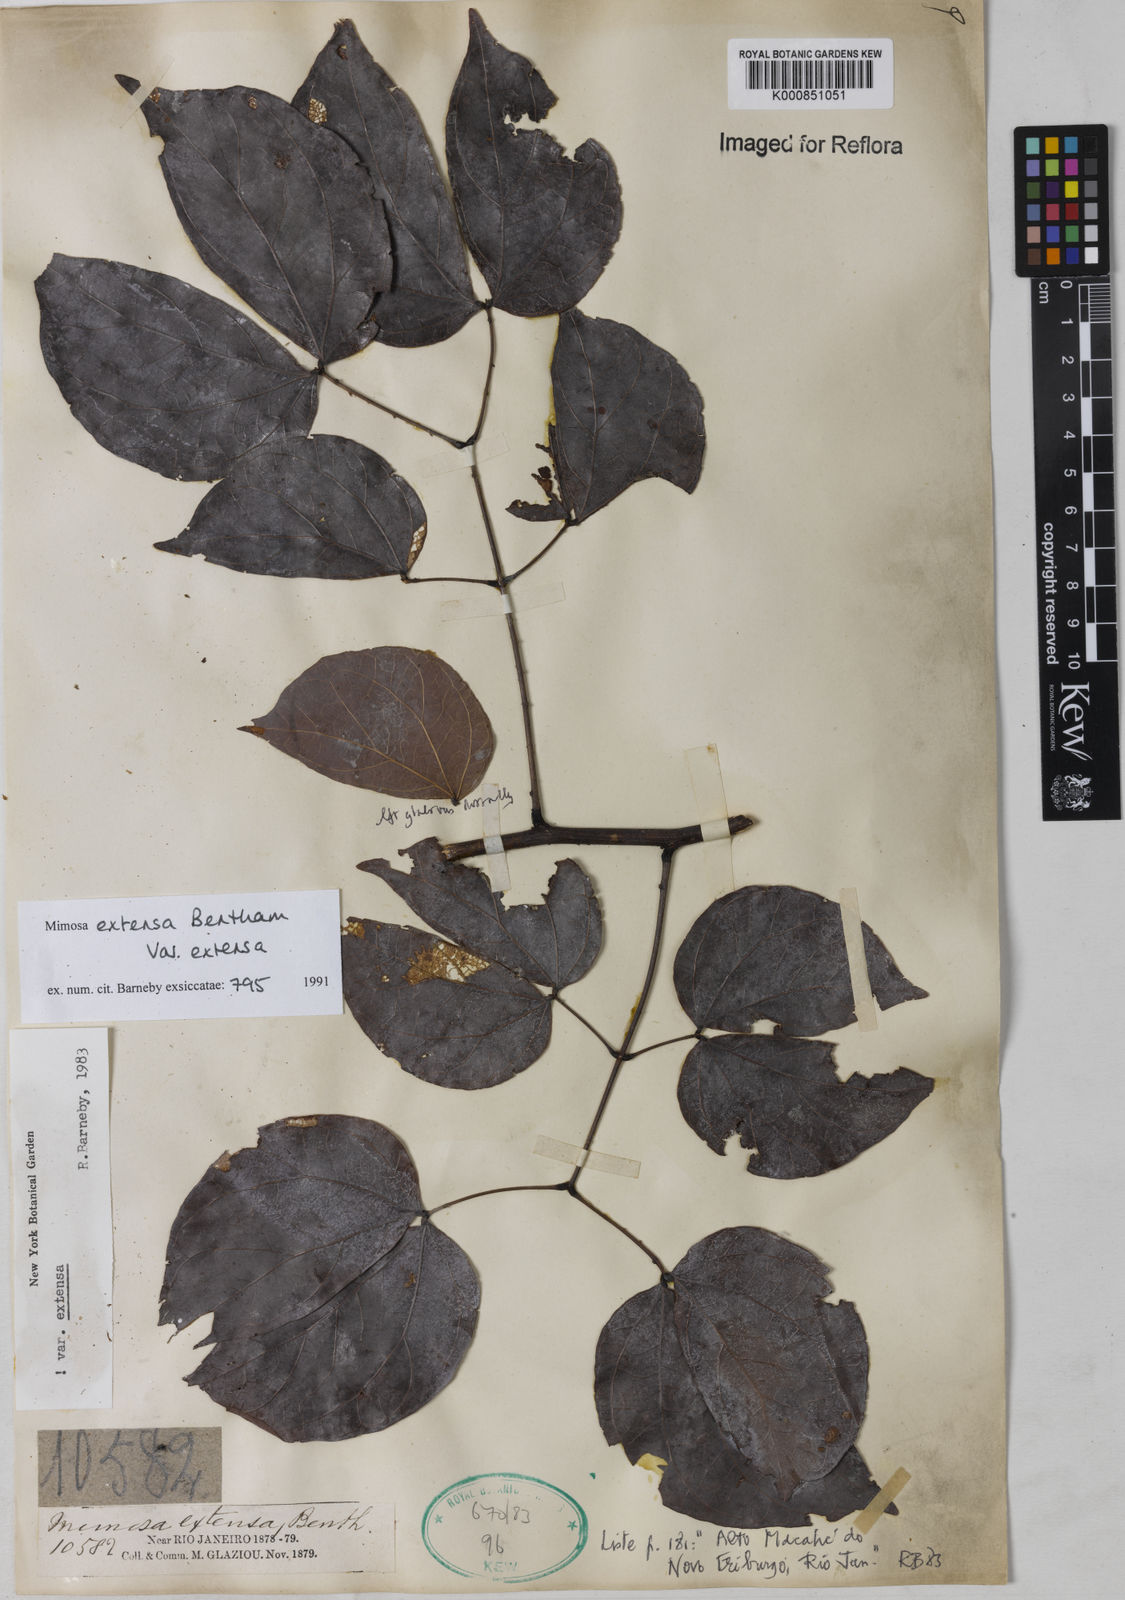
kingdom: Plantae
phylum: Tracheophyta
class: Magnoliopsida
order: Fabales
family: Fabaceae
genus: Mimosa
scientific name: Mimosa extensa
